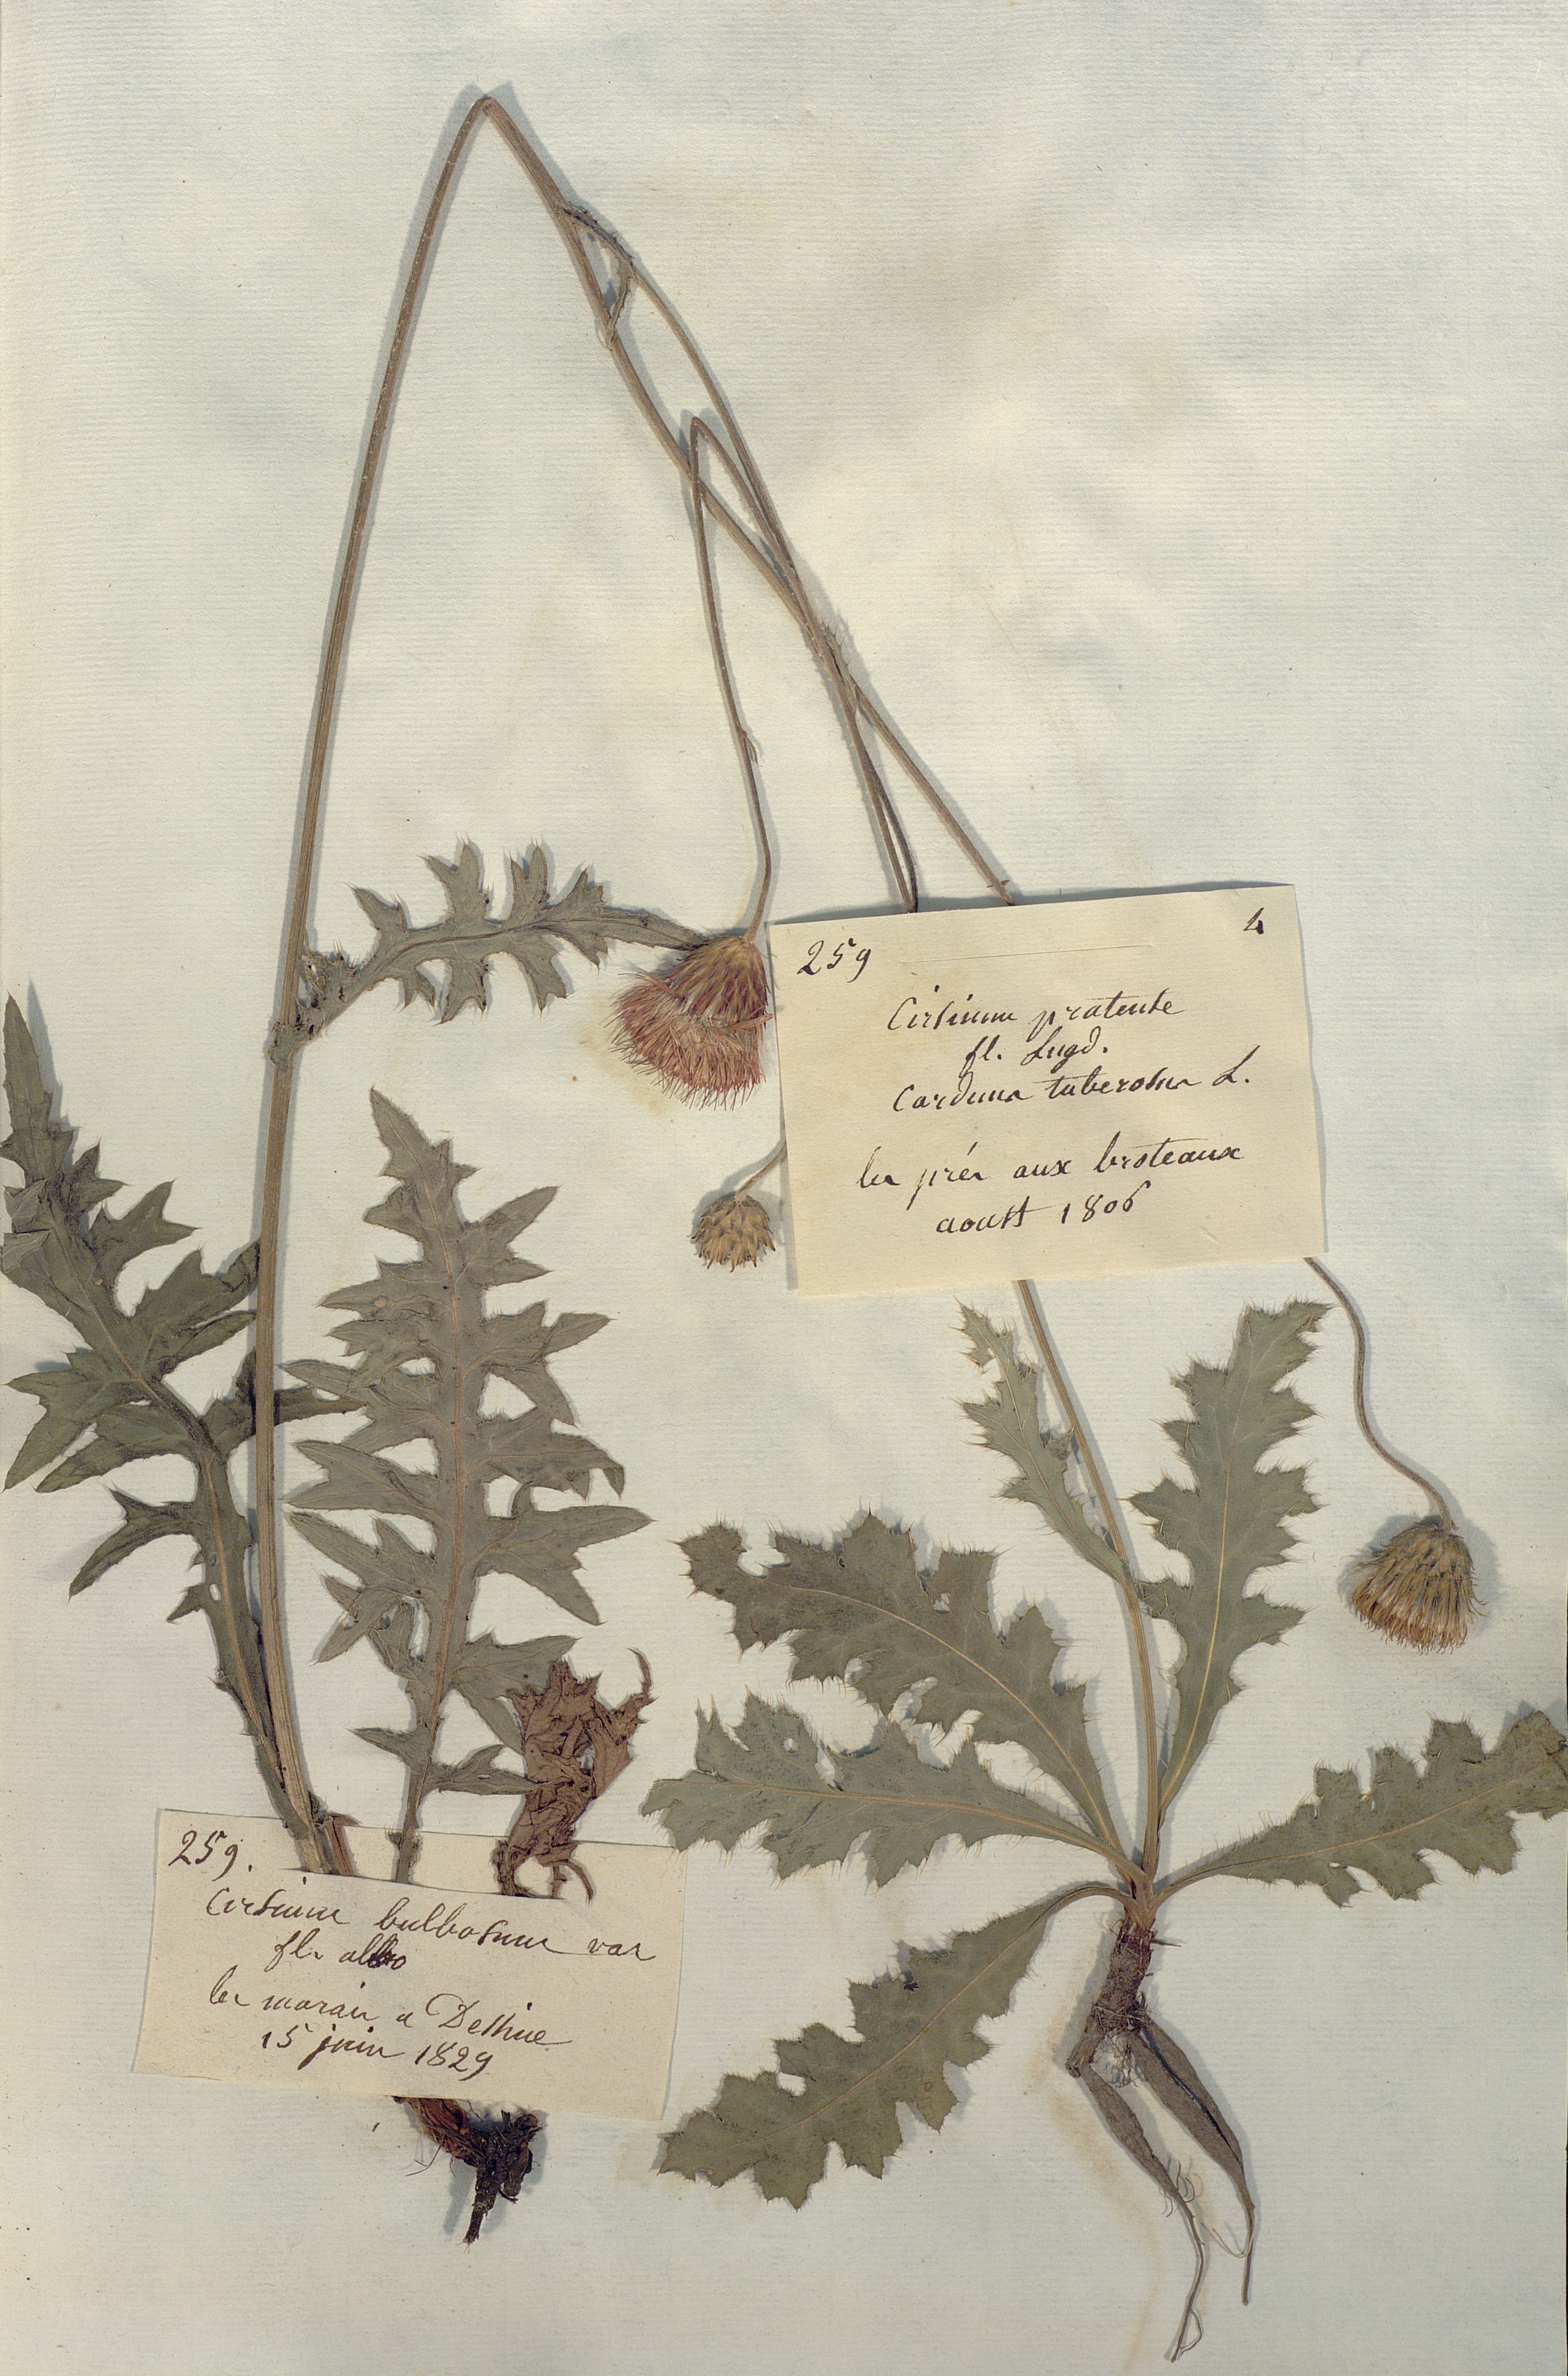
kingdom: Plantae
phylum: Tracheophyta
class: Magnoliopsida
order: Asterales
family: Asteraceae
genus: Cirsium
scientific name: Cirsium
